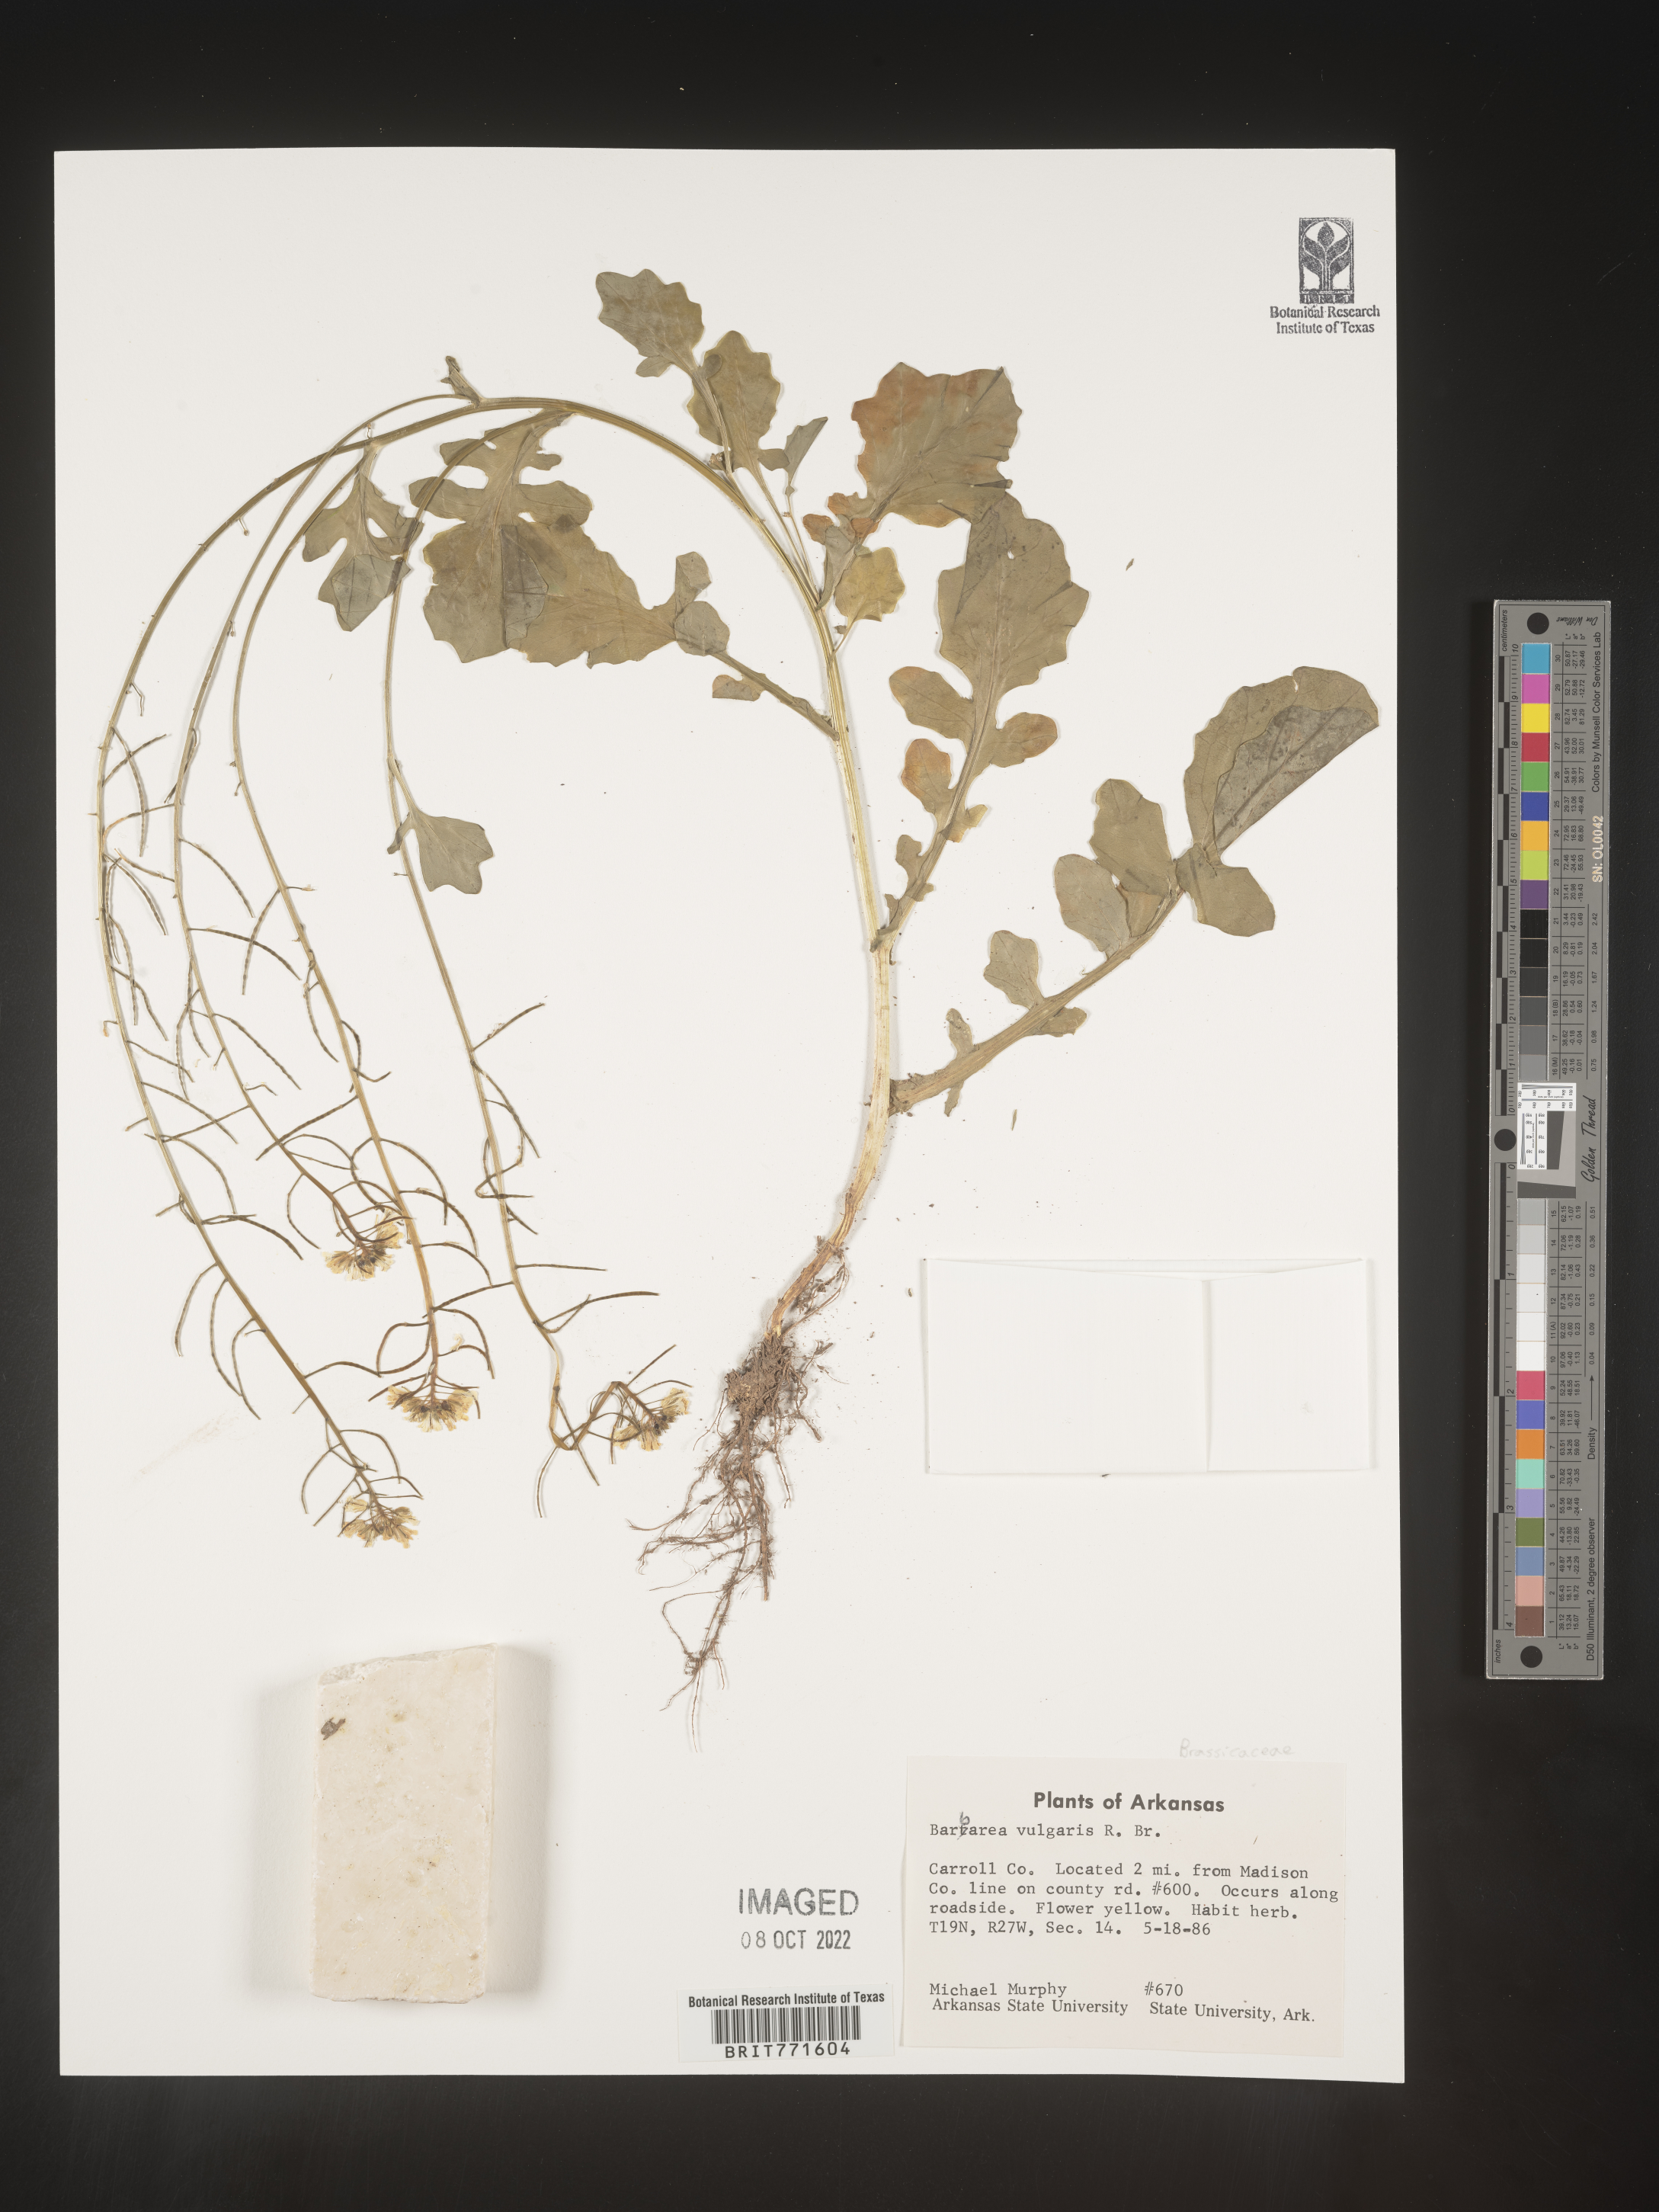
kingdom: Plantae
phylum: Tracheophyta
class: Magnoliopsida
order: Brassicales
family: Brassicaceae
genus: Barbarea
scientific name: Barbarea vulgaris
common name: Cressy-greens
